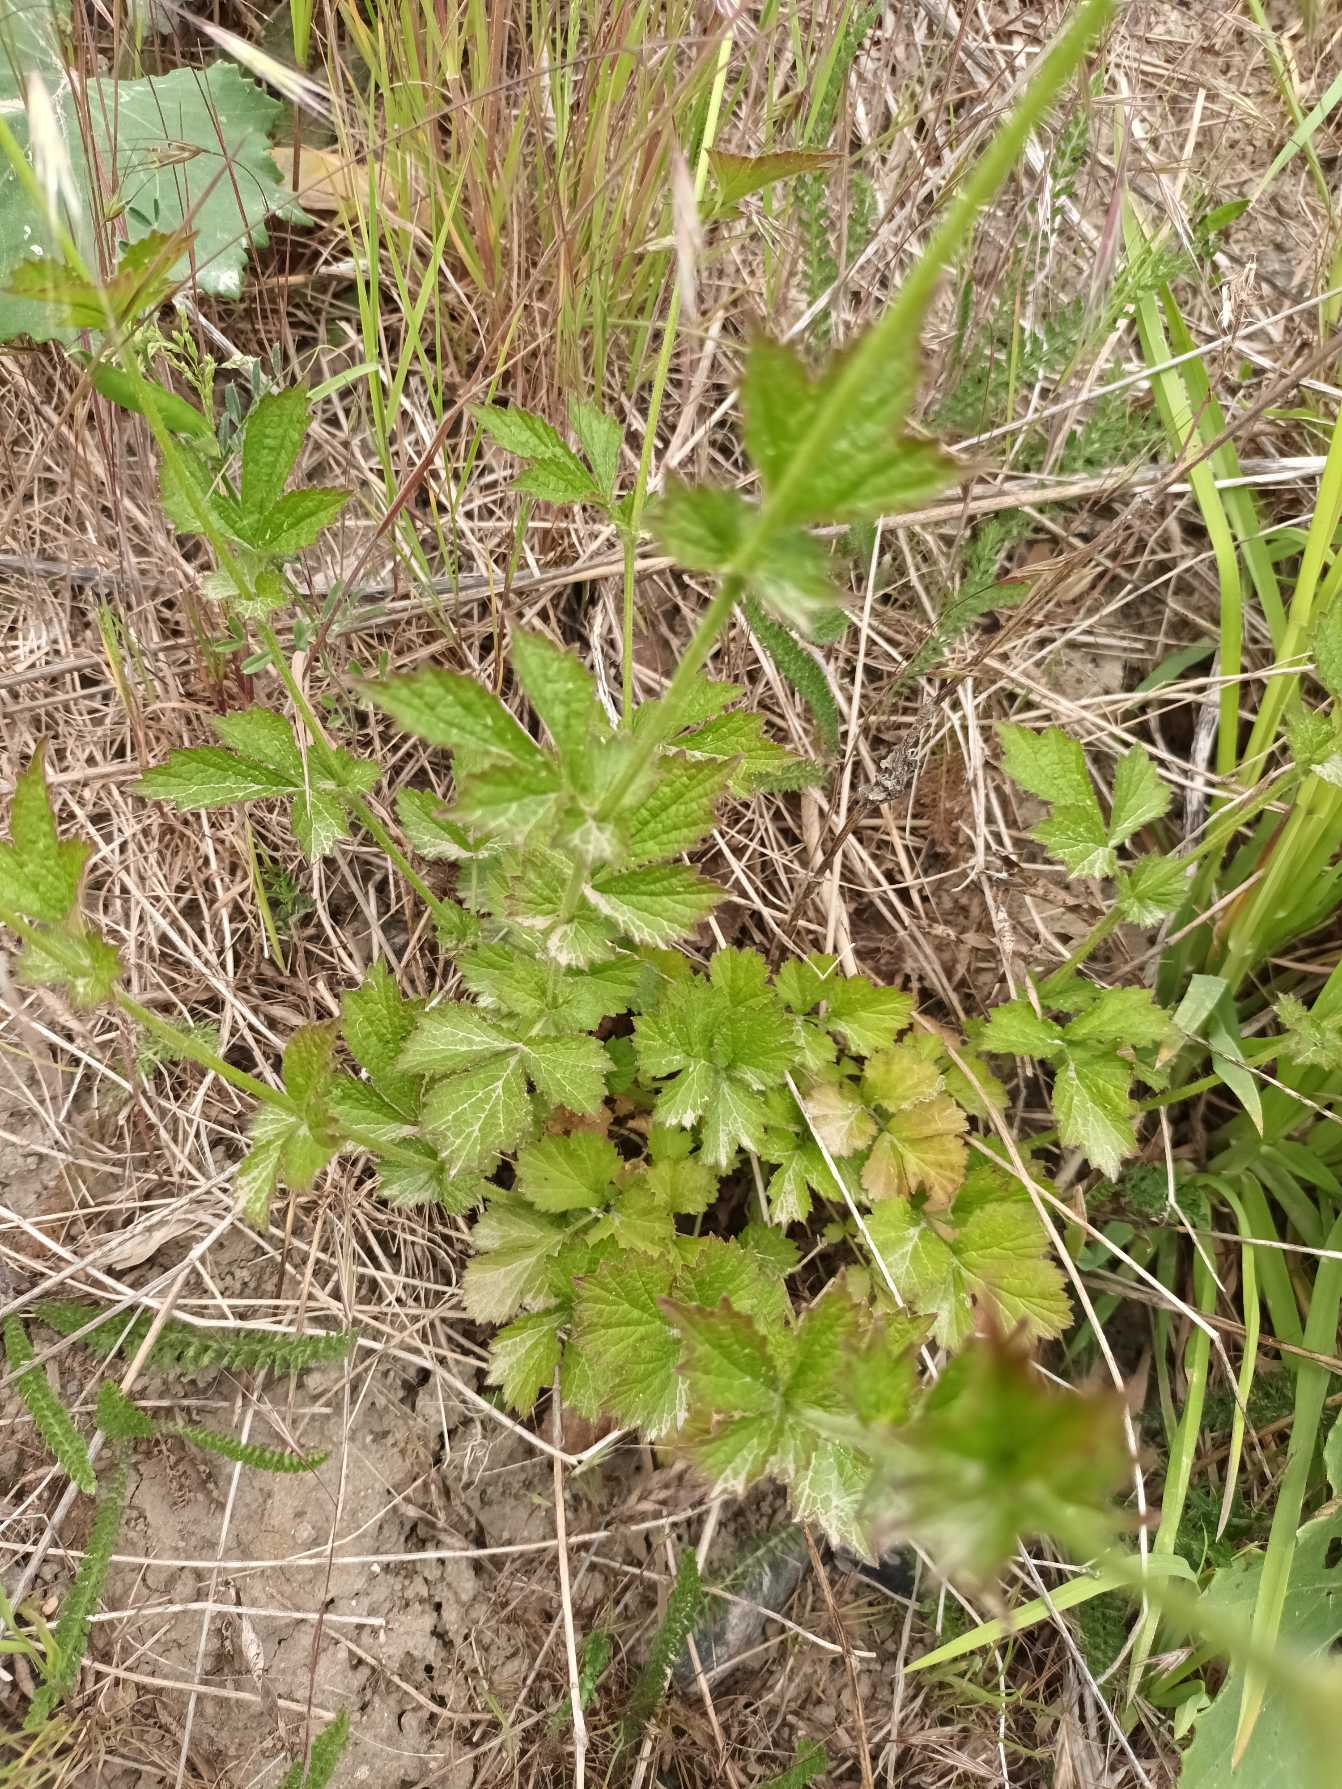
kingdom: Plantae
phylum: Tracheophyta
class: Magnoliopsida
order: Rosales
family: Rosaceae
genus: Geum
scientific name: Geum urbanum
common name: Feber-nellikerod
